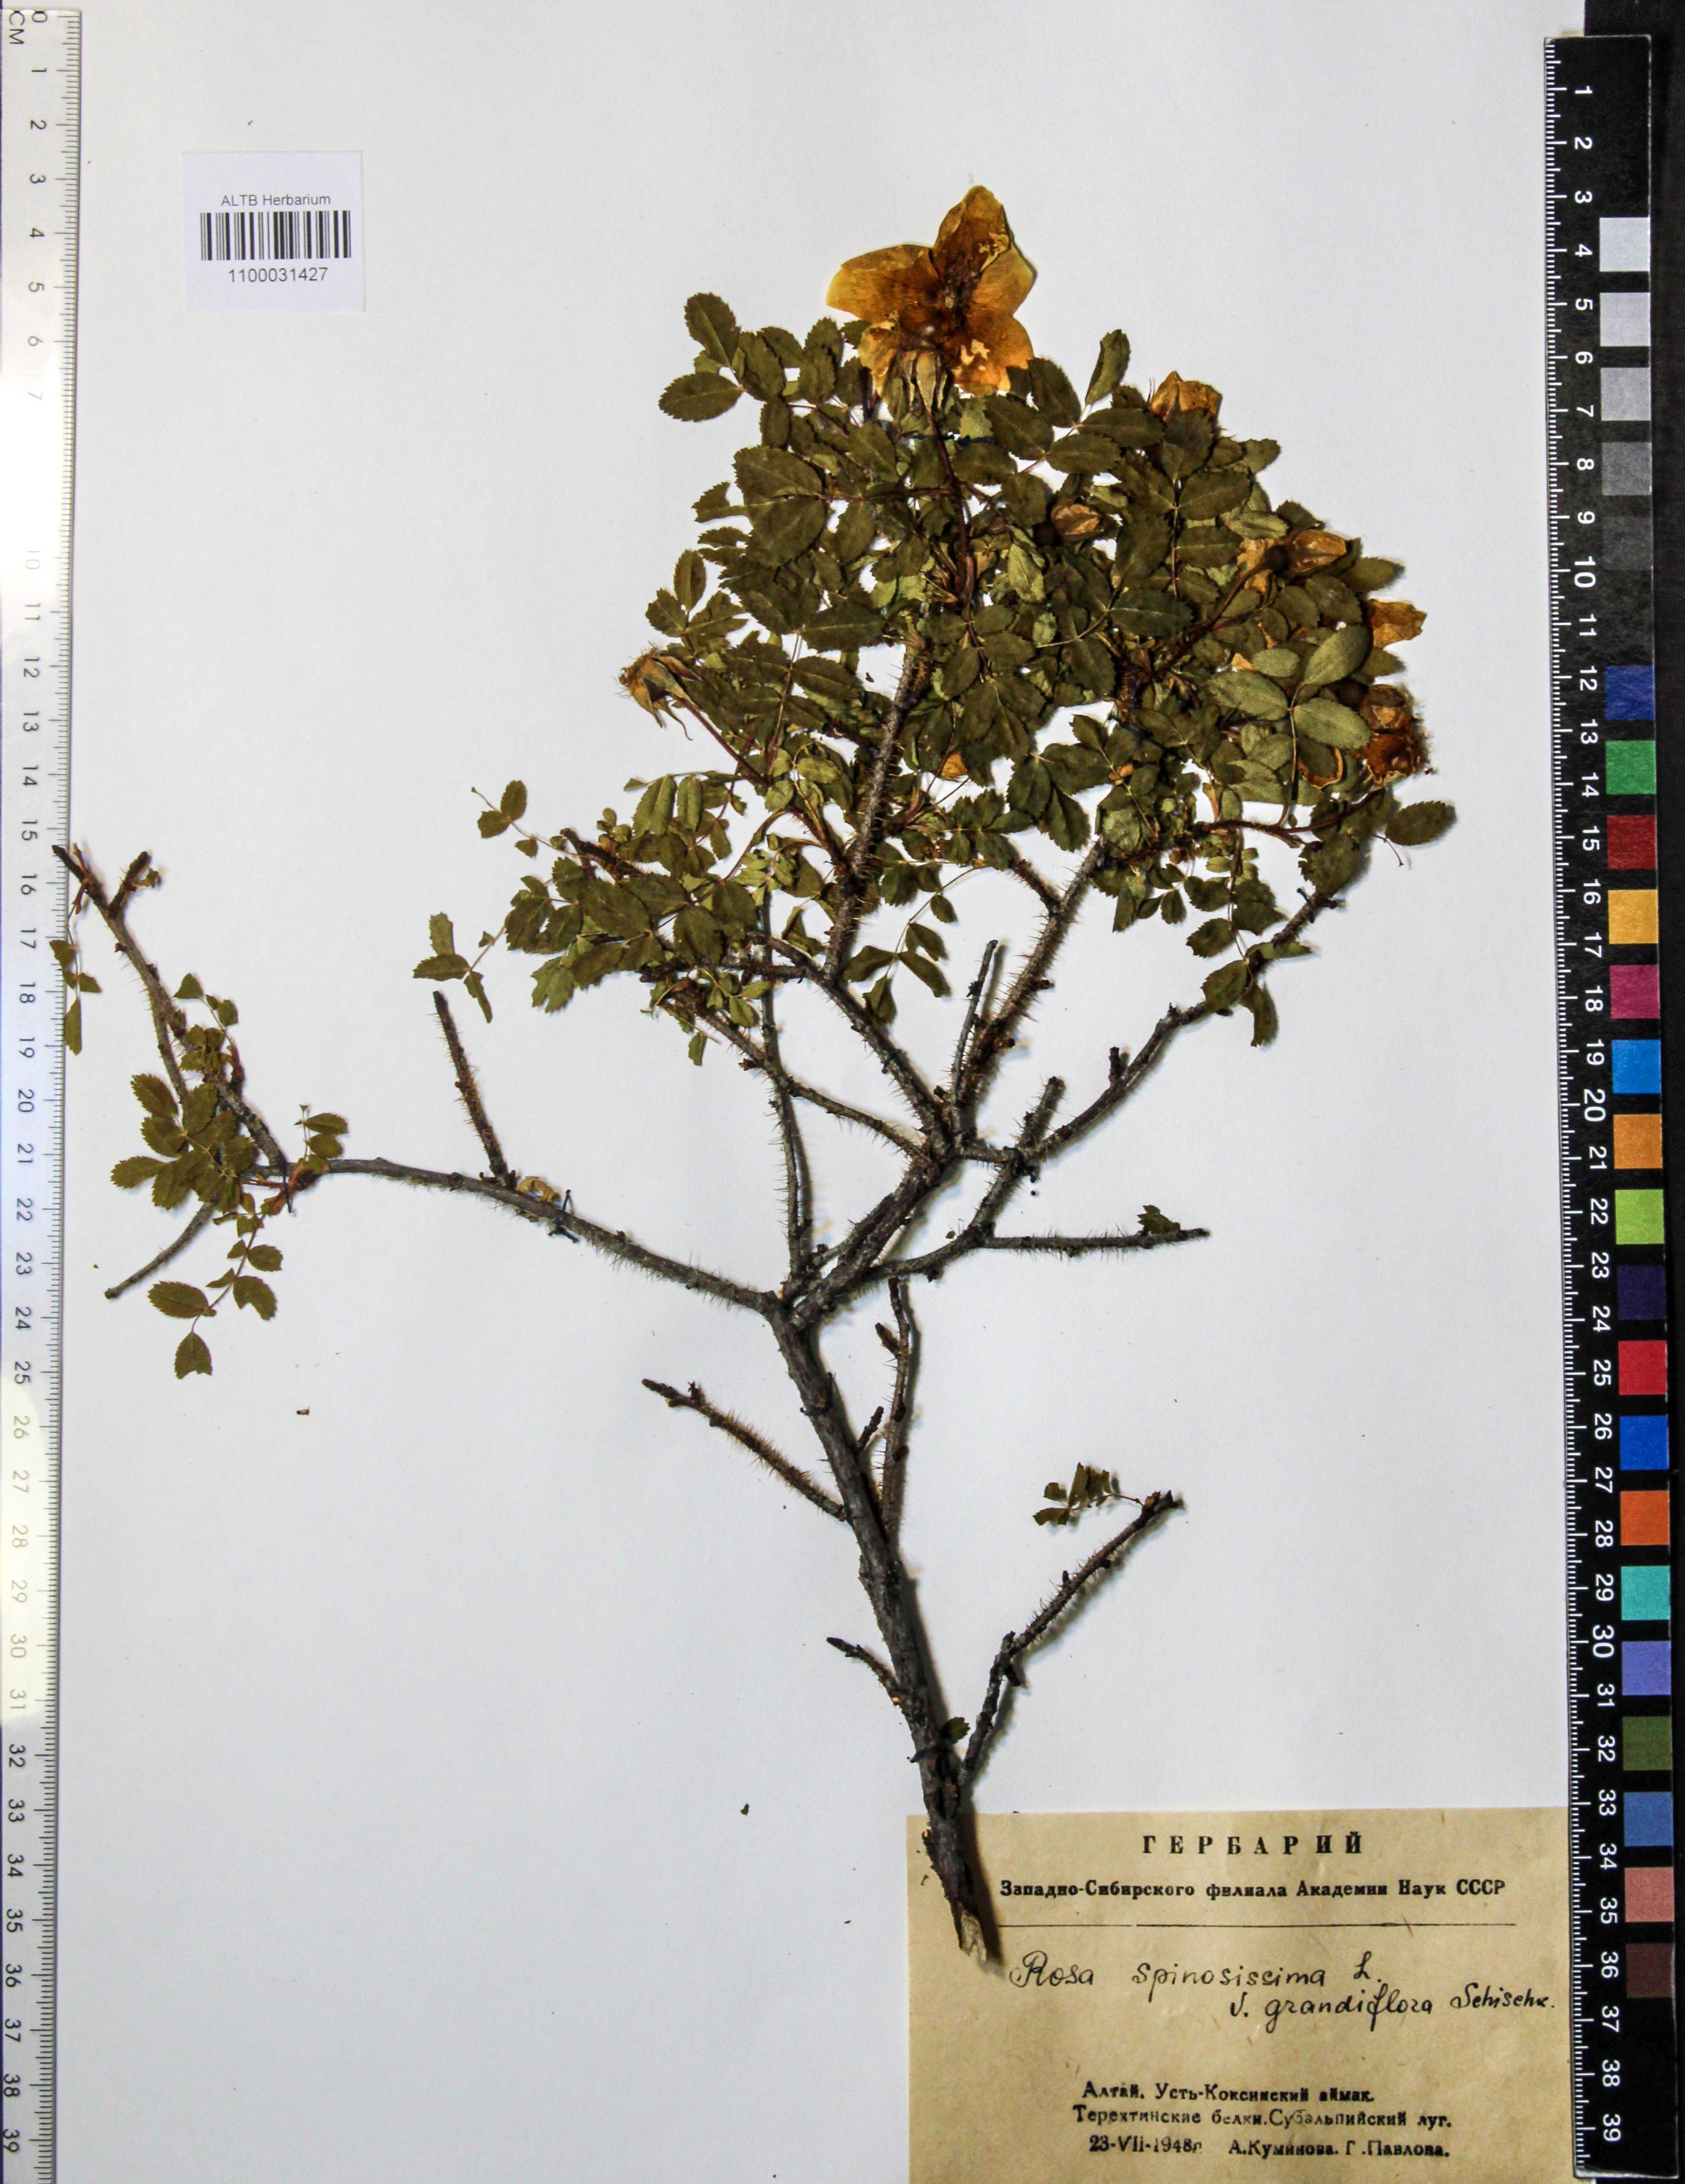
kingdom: Plantae
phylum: Tracheophyta
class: Magnoliopsida
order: Rosales
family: Rosaceae
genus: Rosa
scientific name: Rosa spinosissima
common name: Burnet rose
